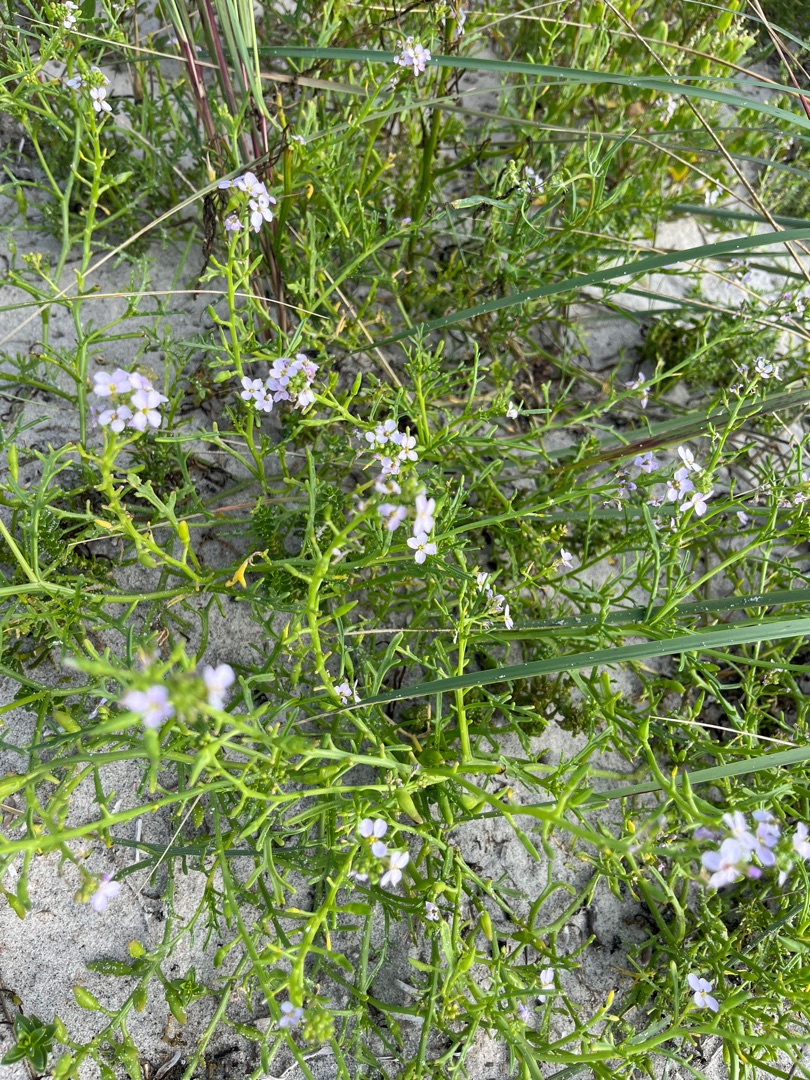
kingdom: Plantae
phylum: Tracheophyta
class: Magnoliopsida
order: Brassicales
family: Brassicaceae
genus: Cakile
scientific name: Cakile maritima
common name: Strandsennep
